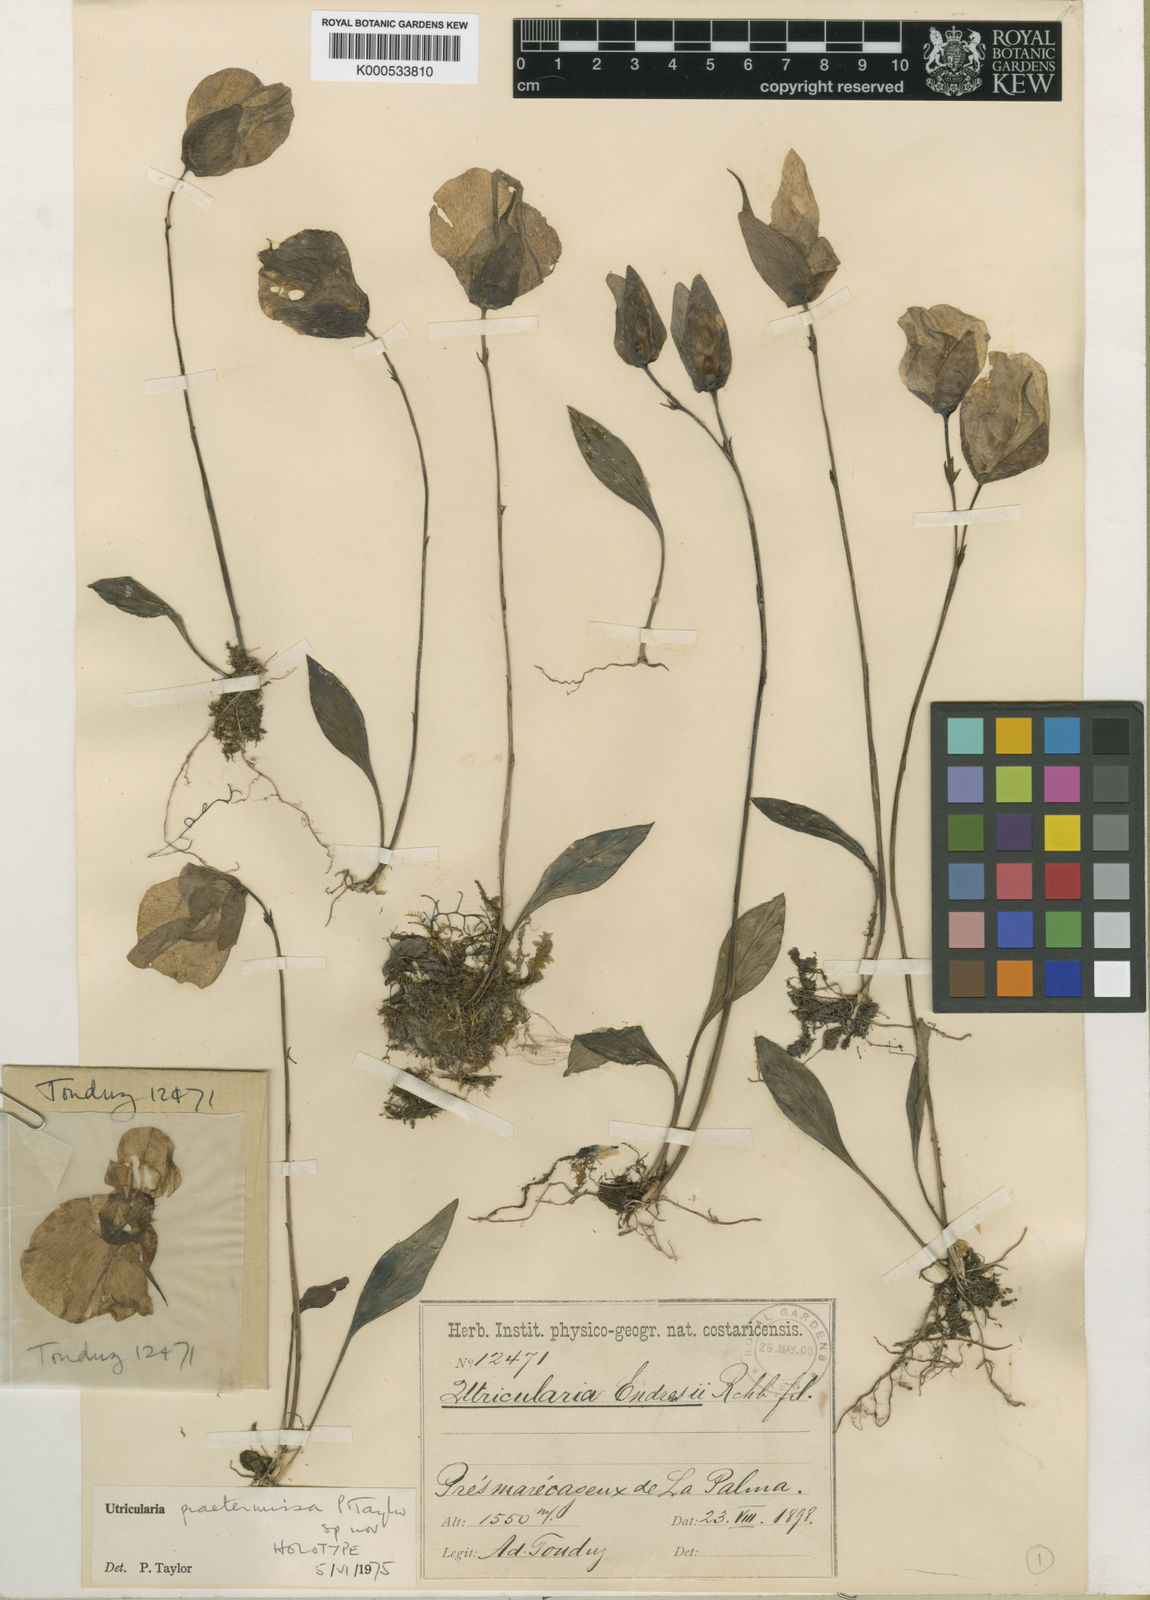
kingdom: Plantae
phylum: Tracheophyta
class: Magnoliopsida
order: Lamiales
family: Lentibulariaceae
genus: Utricularia
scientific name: Utricularia praetermissa
